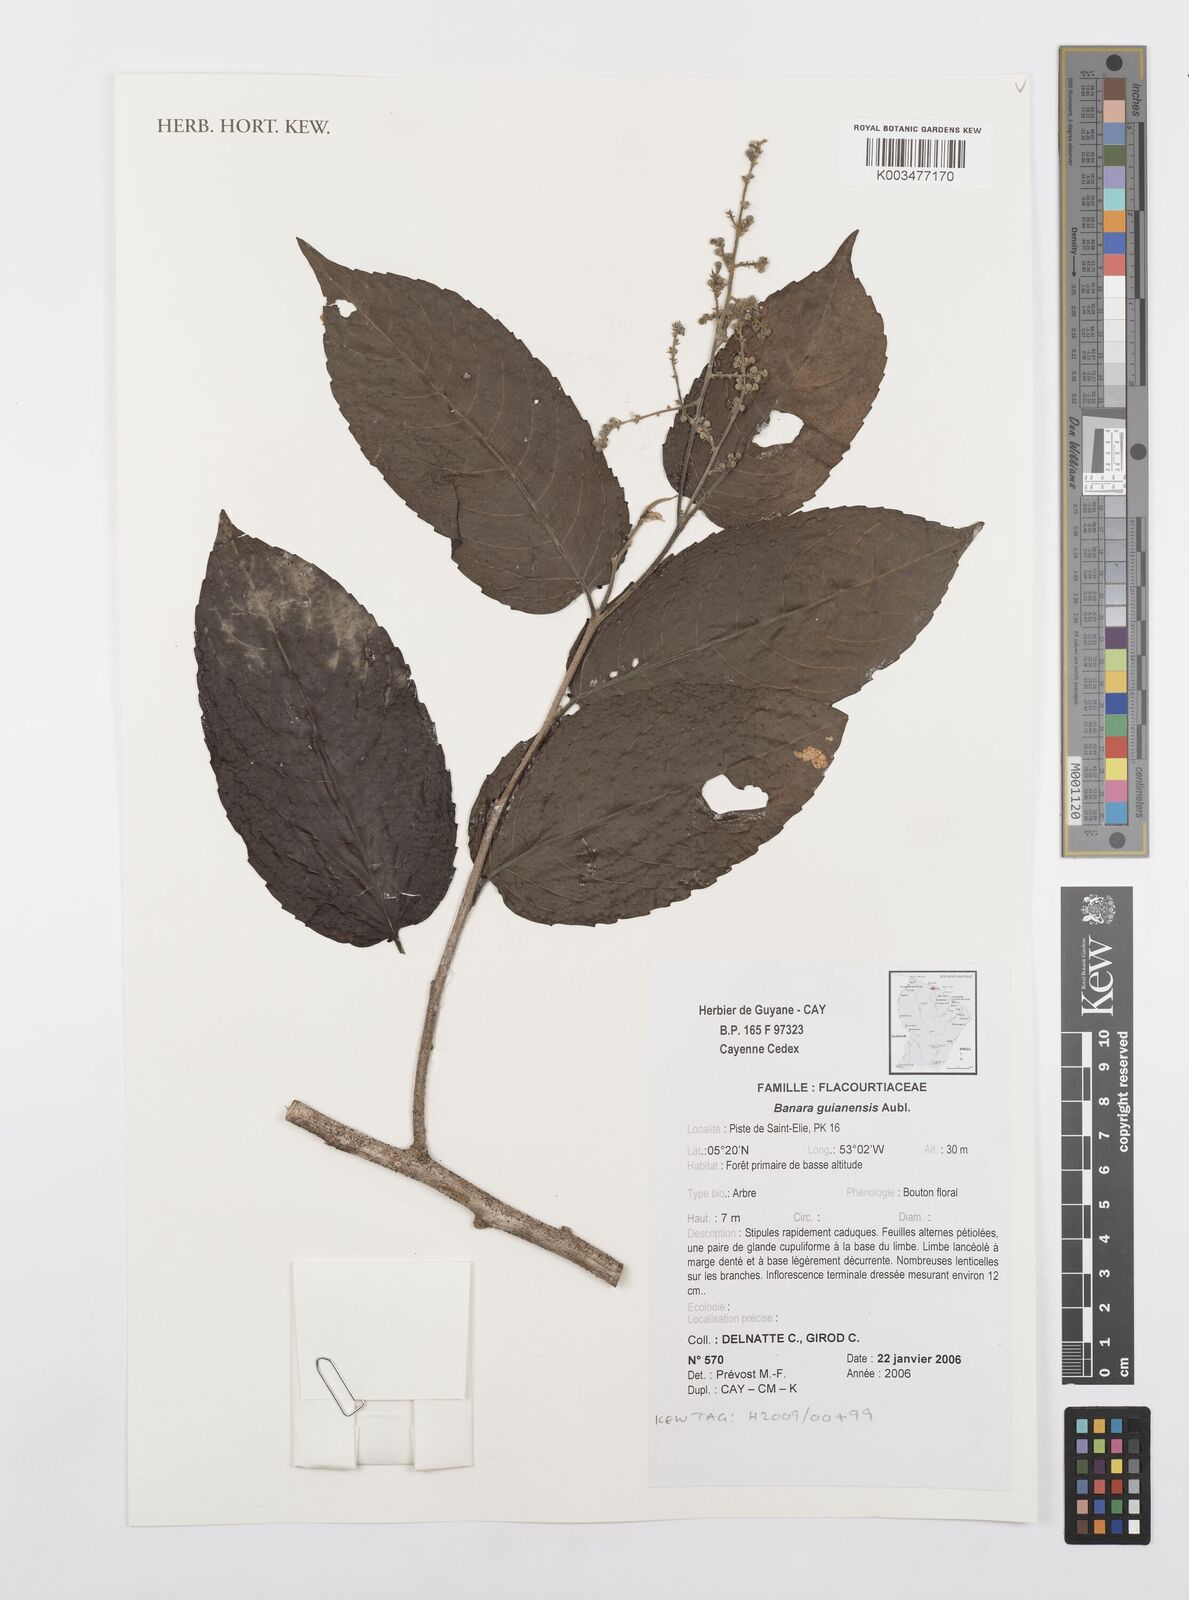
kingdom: Plantae
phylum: Tracheophyta
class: Magnoliopsida
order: Malpighiales
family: Salicaceae
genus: Banara
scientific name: Banara guianensis
